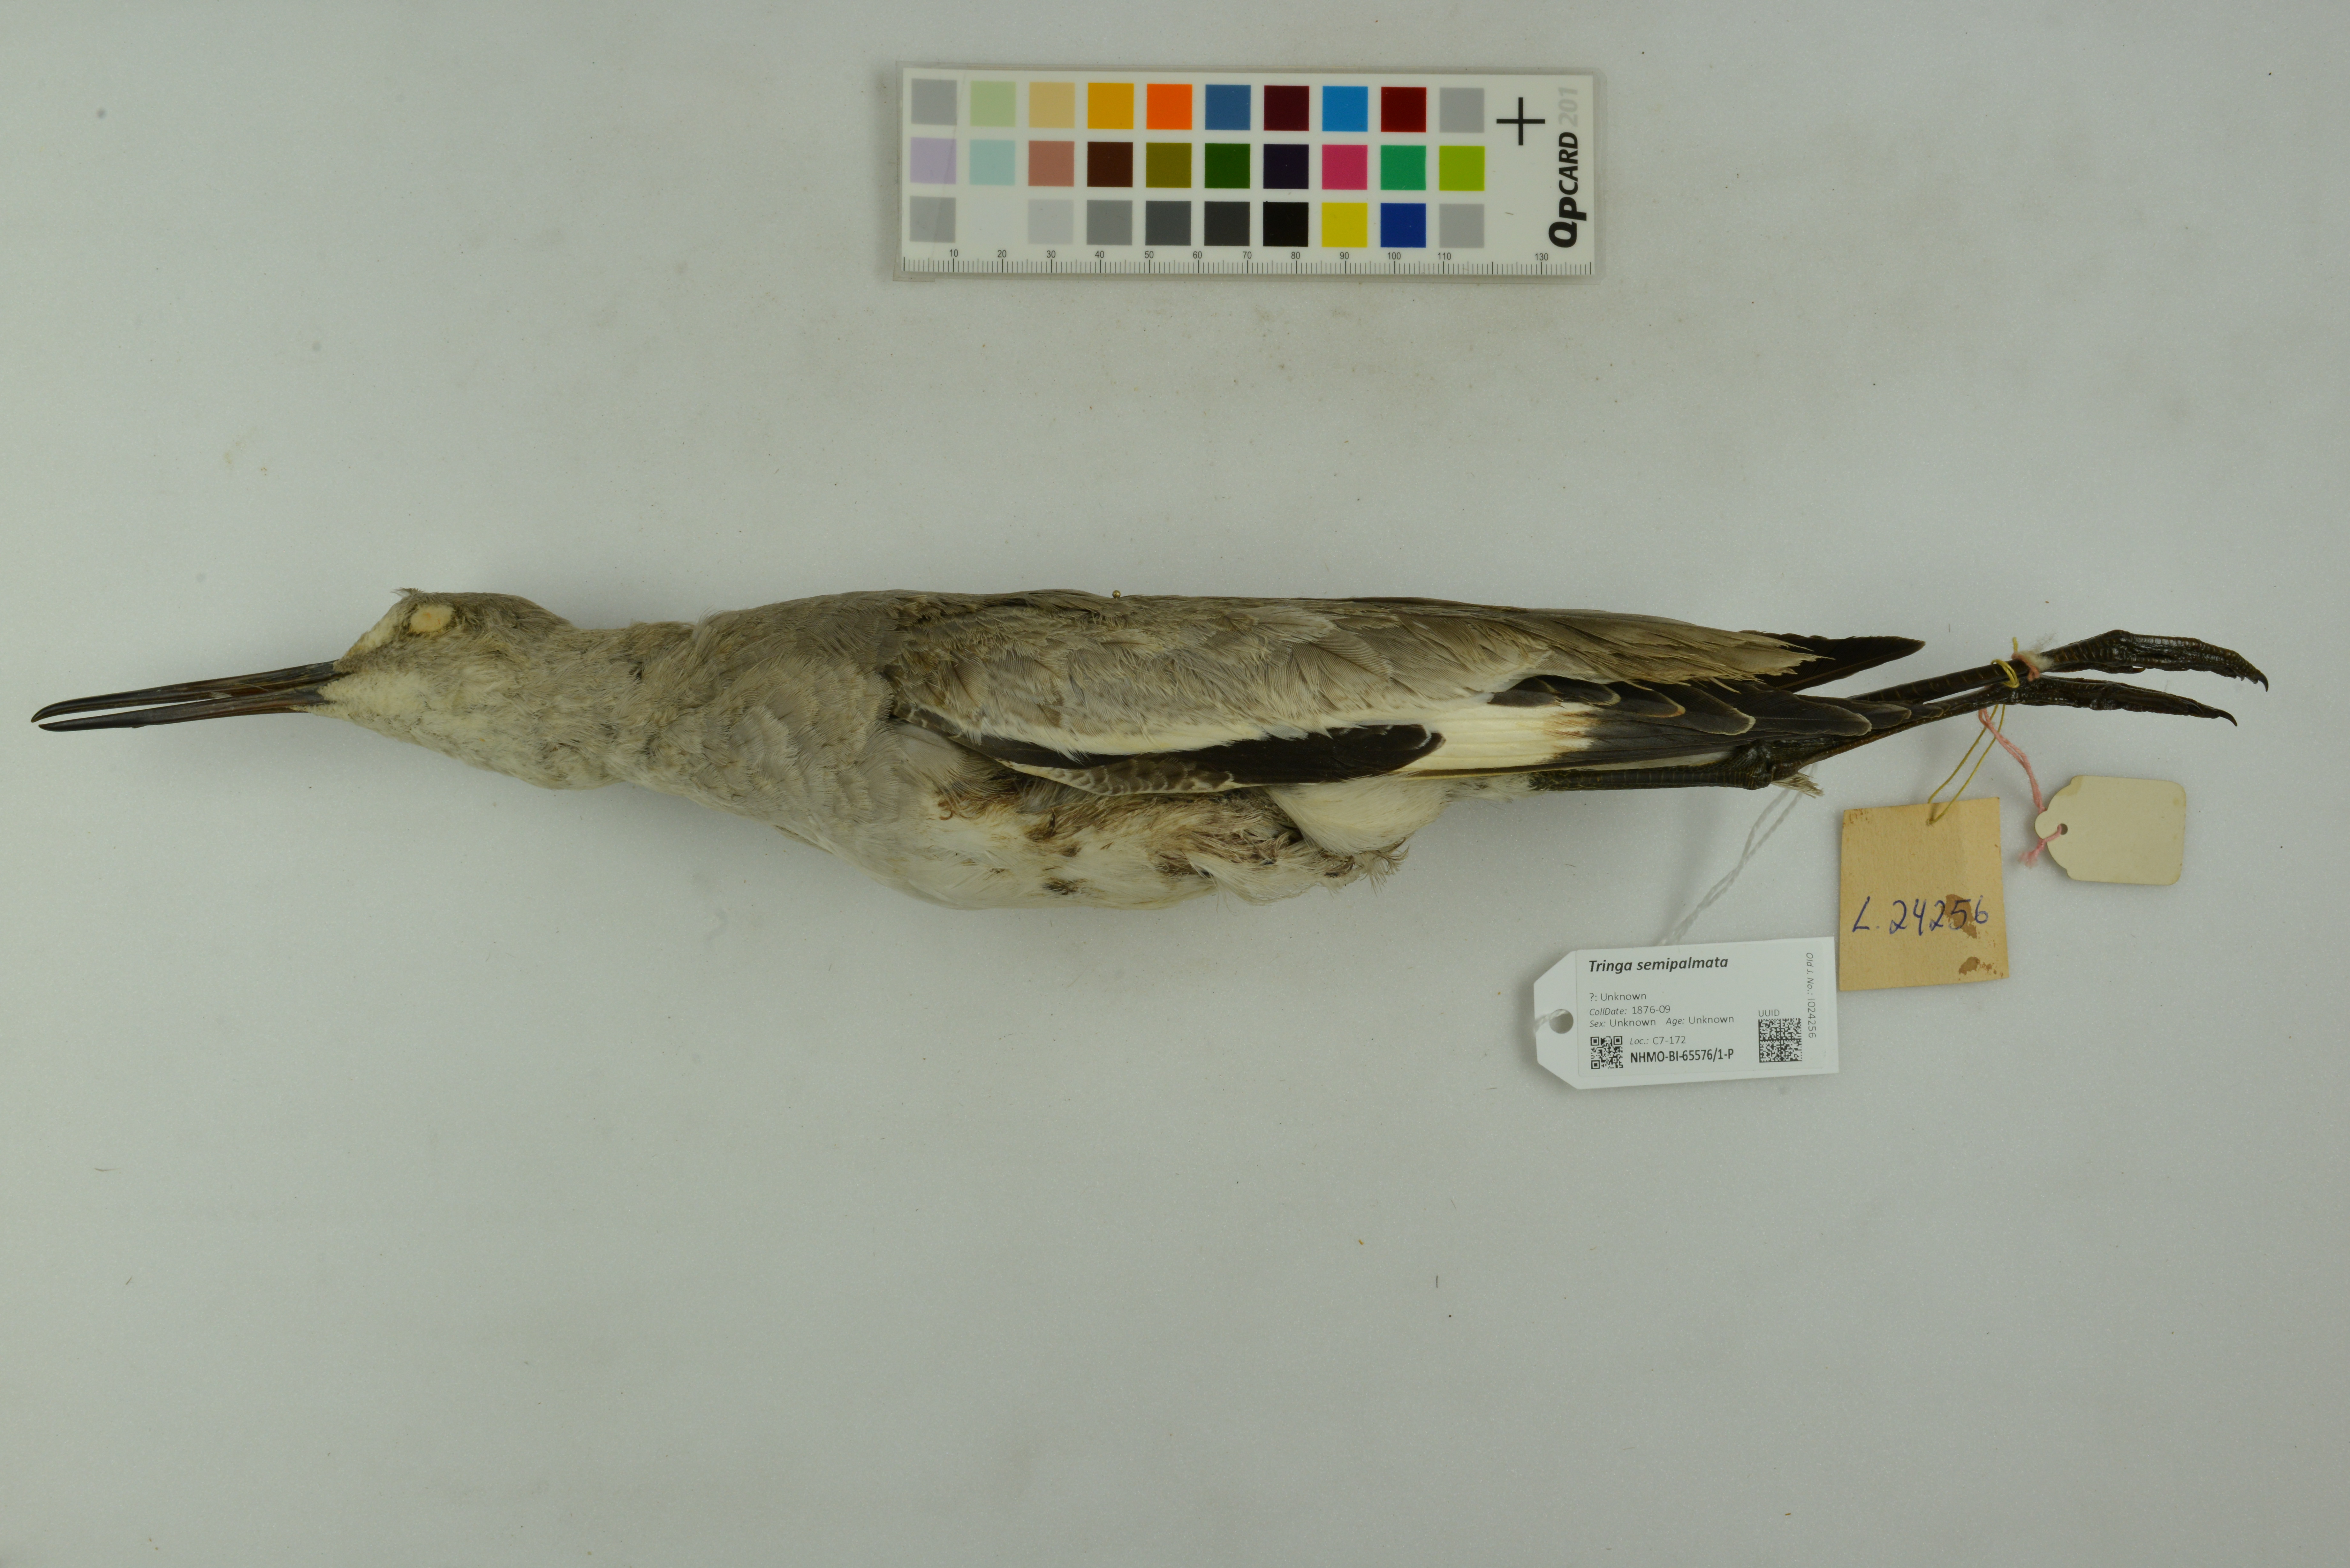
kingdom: Animalia
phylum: Chordata
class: Aves
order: Charadriiformes
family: Scolopacidae
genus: Tringa
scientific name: Tringa semipalmata
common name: Willet
